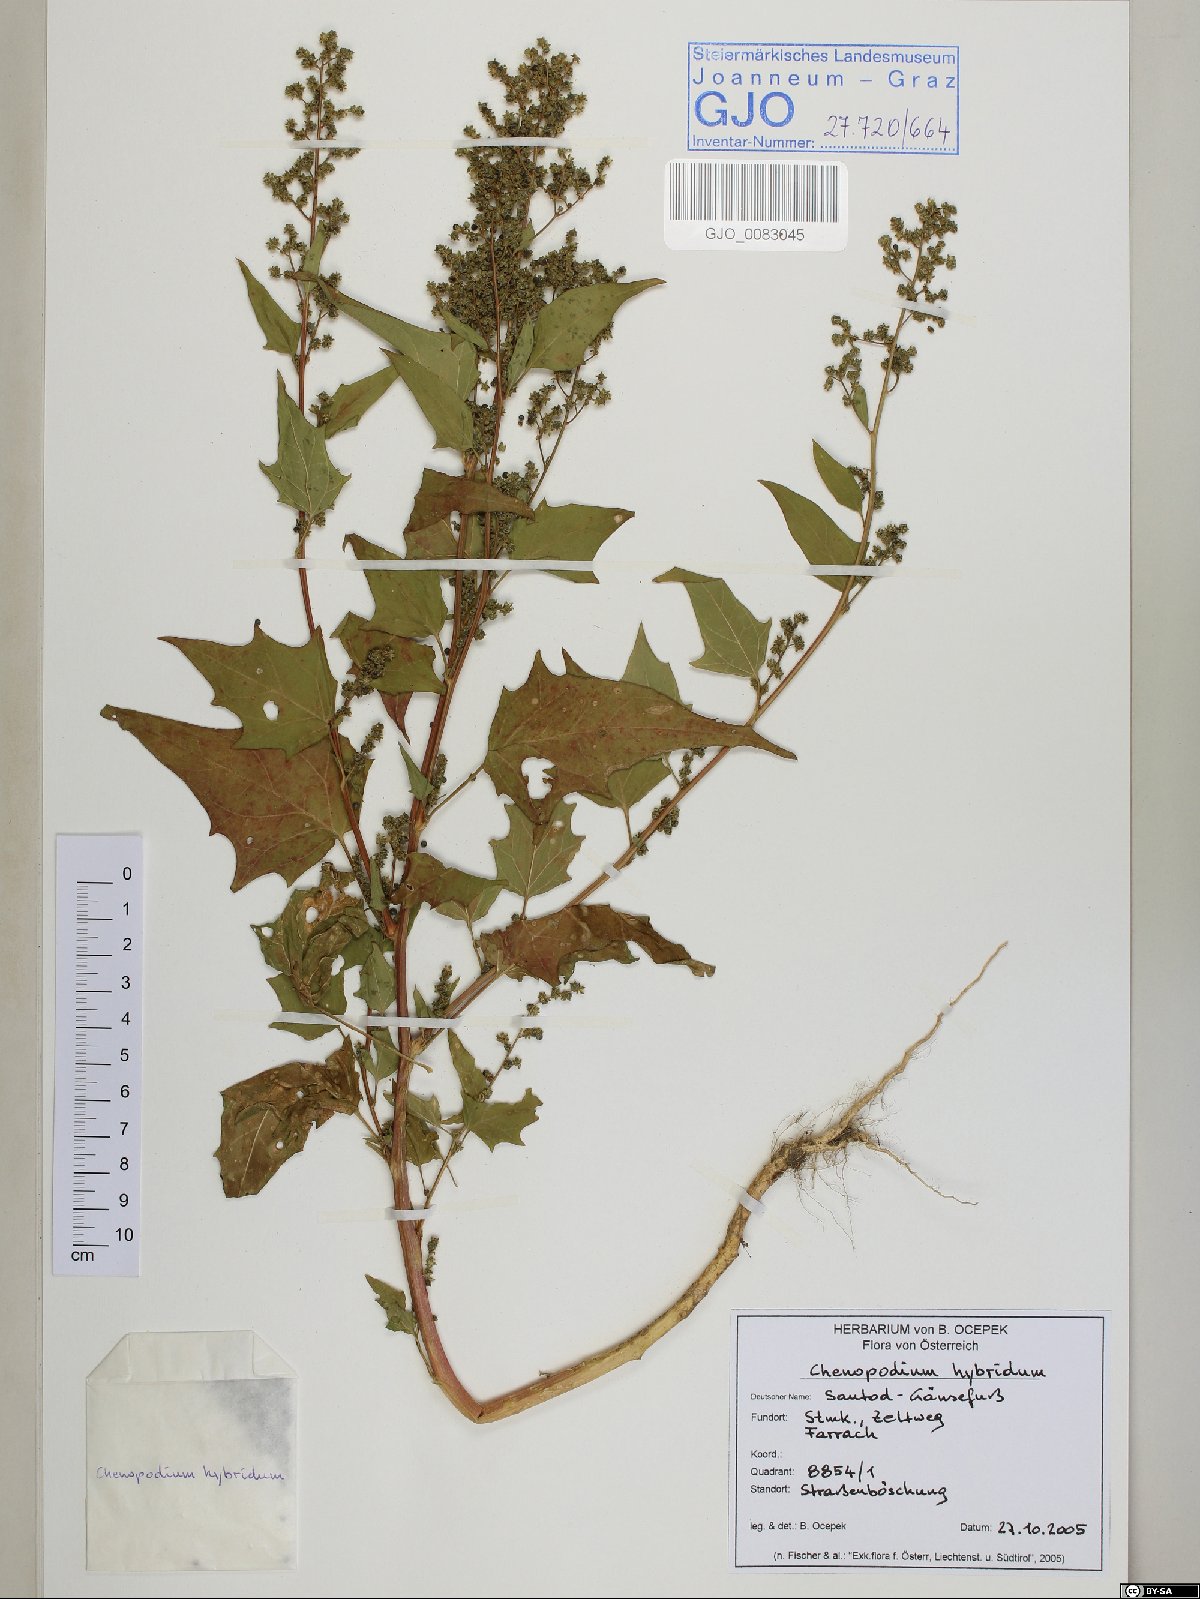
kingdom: Plantae
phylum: Tracheophyta
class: Magnoliopsida
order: Caryophyllales
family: Amaranthaceae
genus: Chenopodiastrum
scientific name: Chenopodiastrum hybridum
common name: Mapleleaf goosefoot
